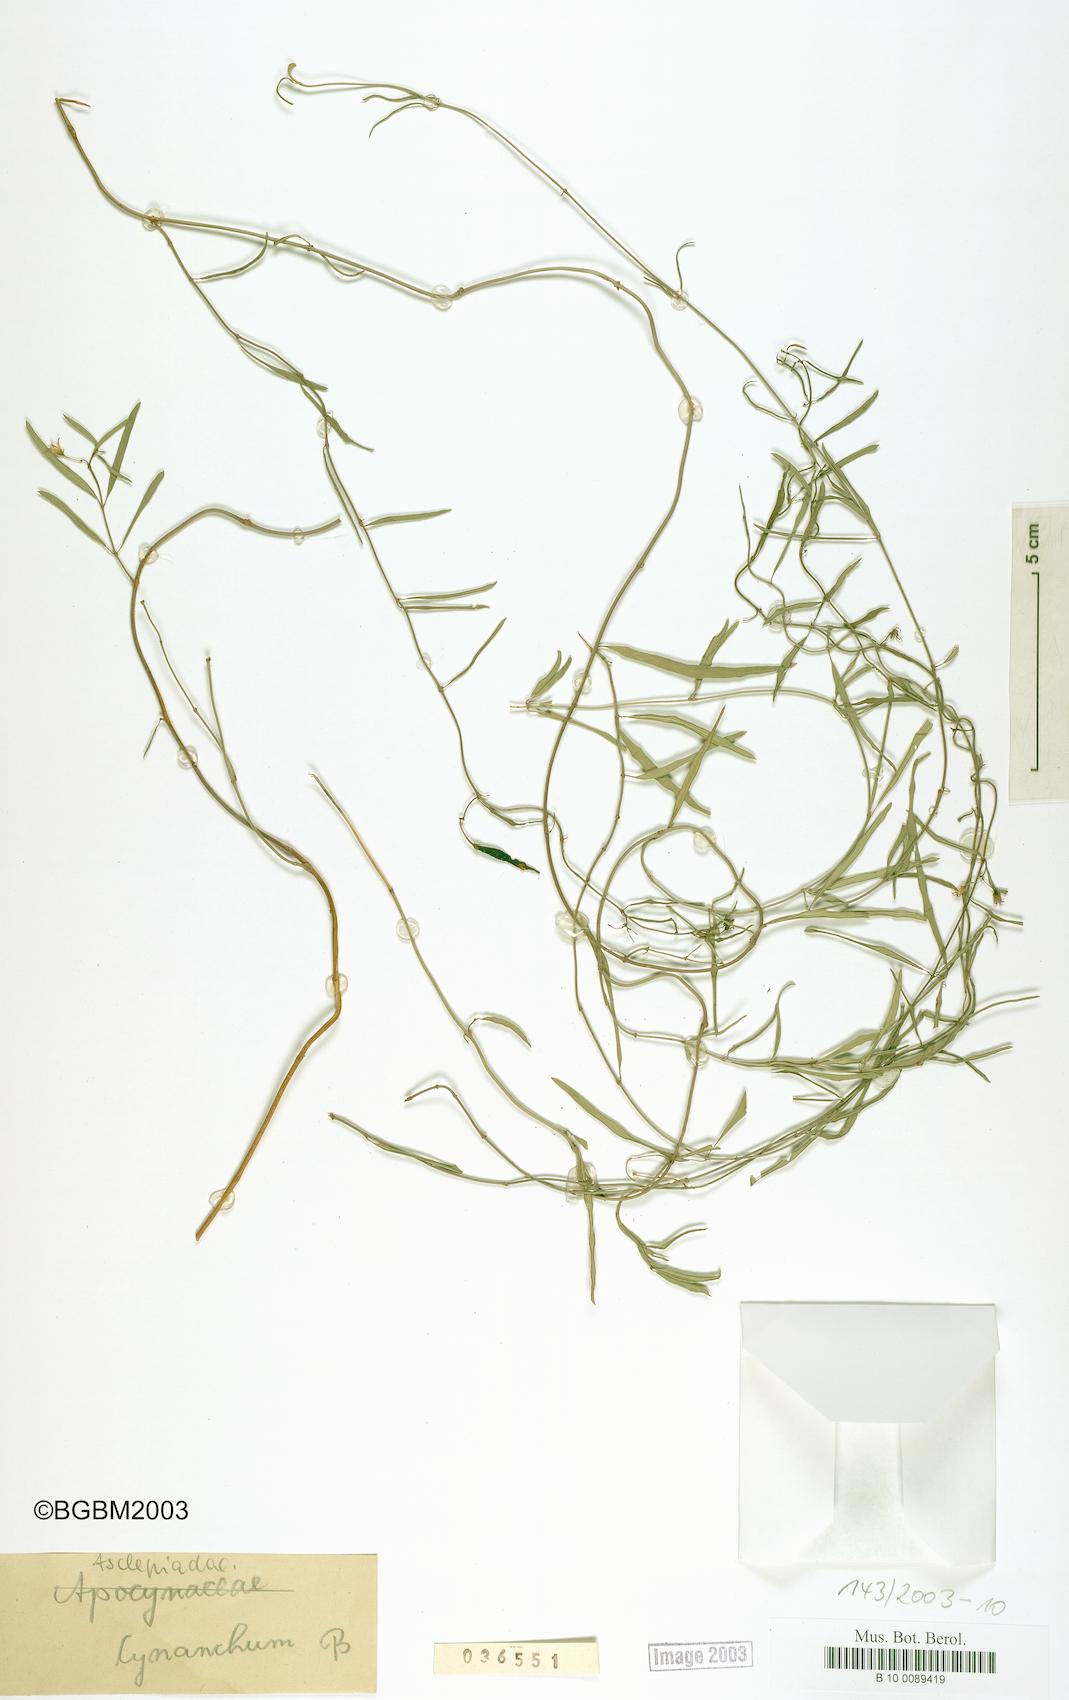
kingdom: Plantae
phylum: Tracheophyta
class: Magnoliopsida
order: Gentianales
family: Apocynaceae
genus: Metastelma
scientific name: Metastelma penicillatum
